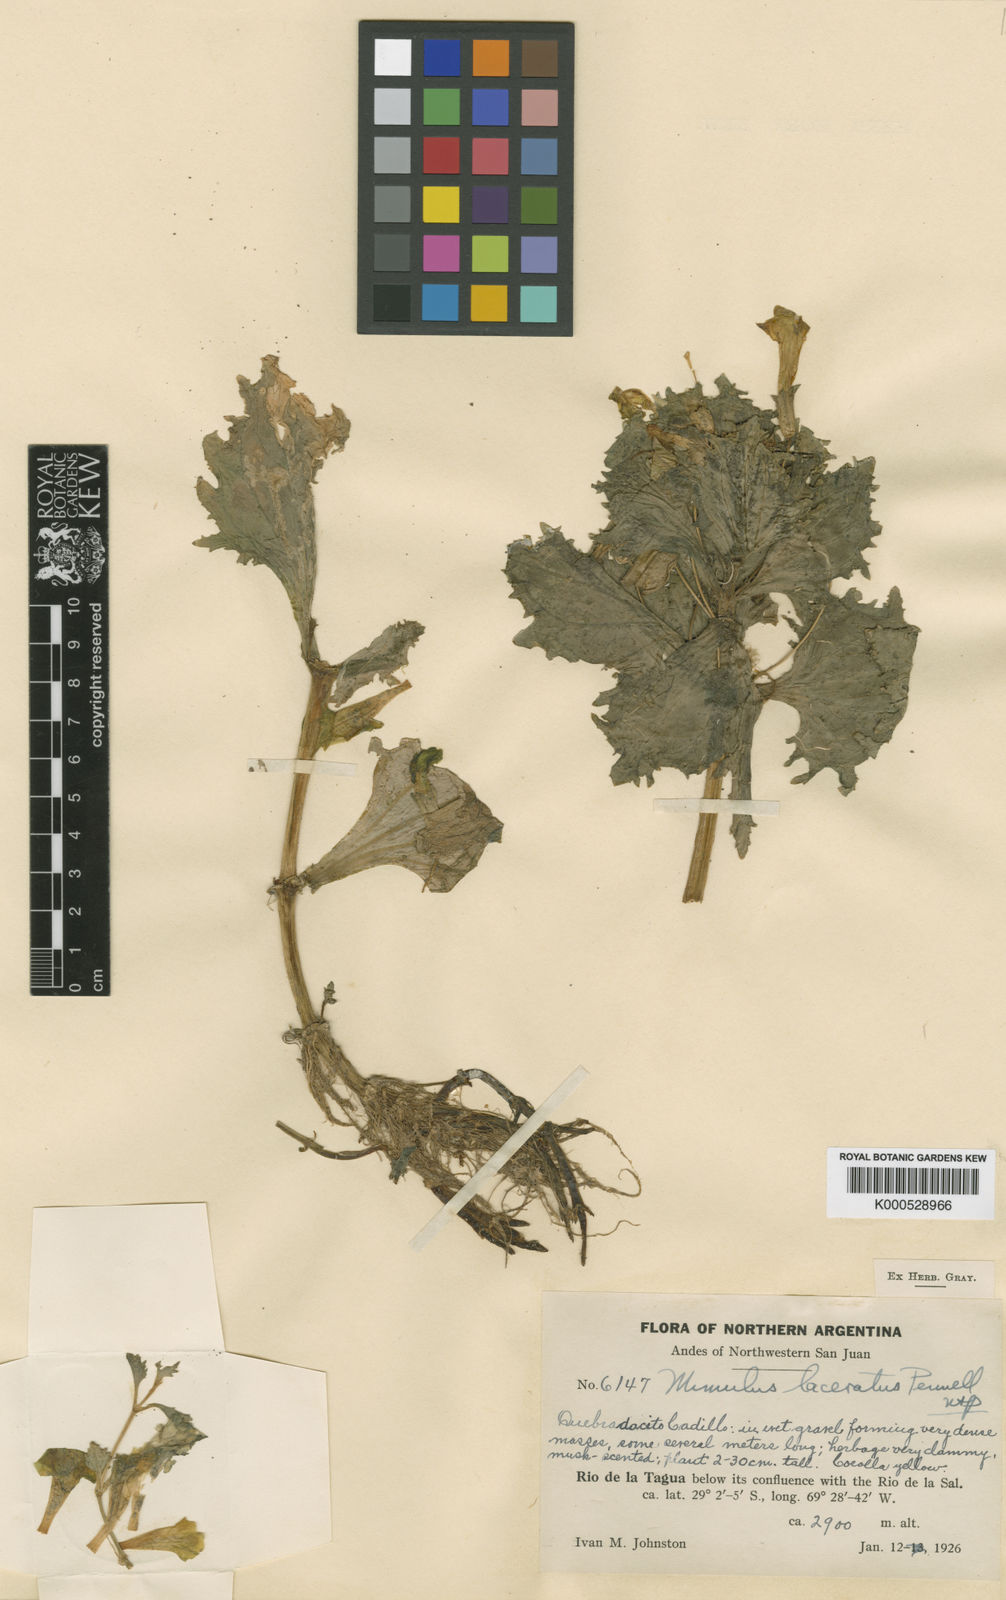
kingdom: Plantae
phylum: Tracheophyta
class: Magnoliopsida
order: Lamiales
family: Phrymaceae
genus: Mimulus
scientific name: Mimulus
